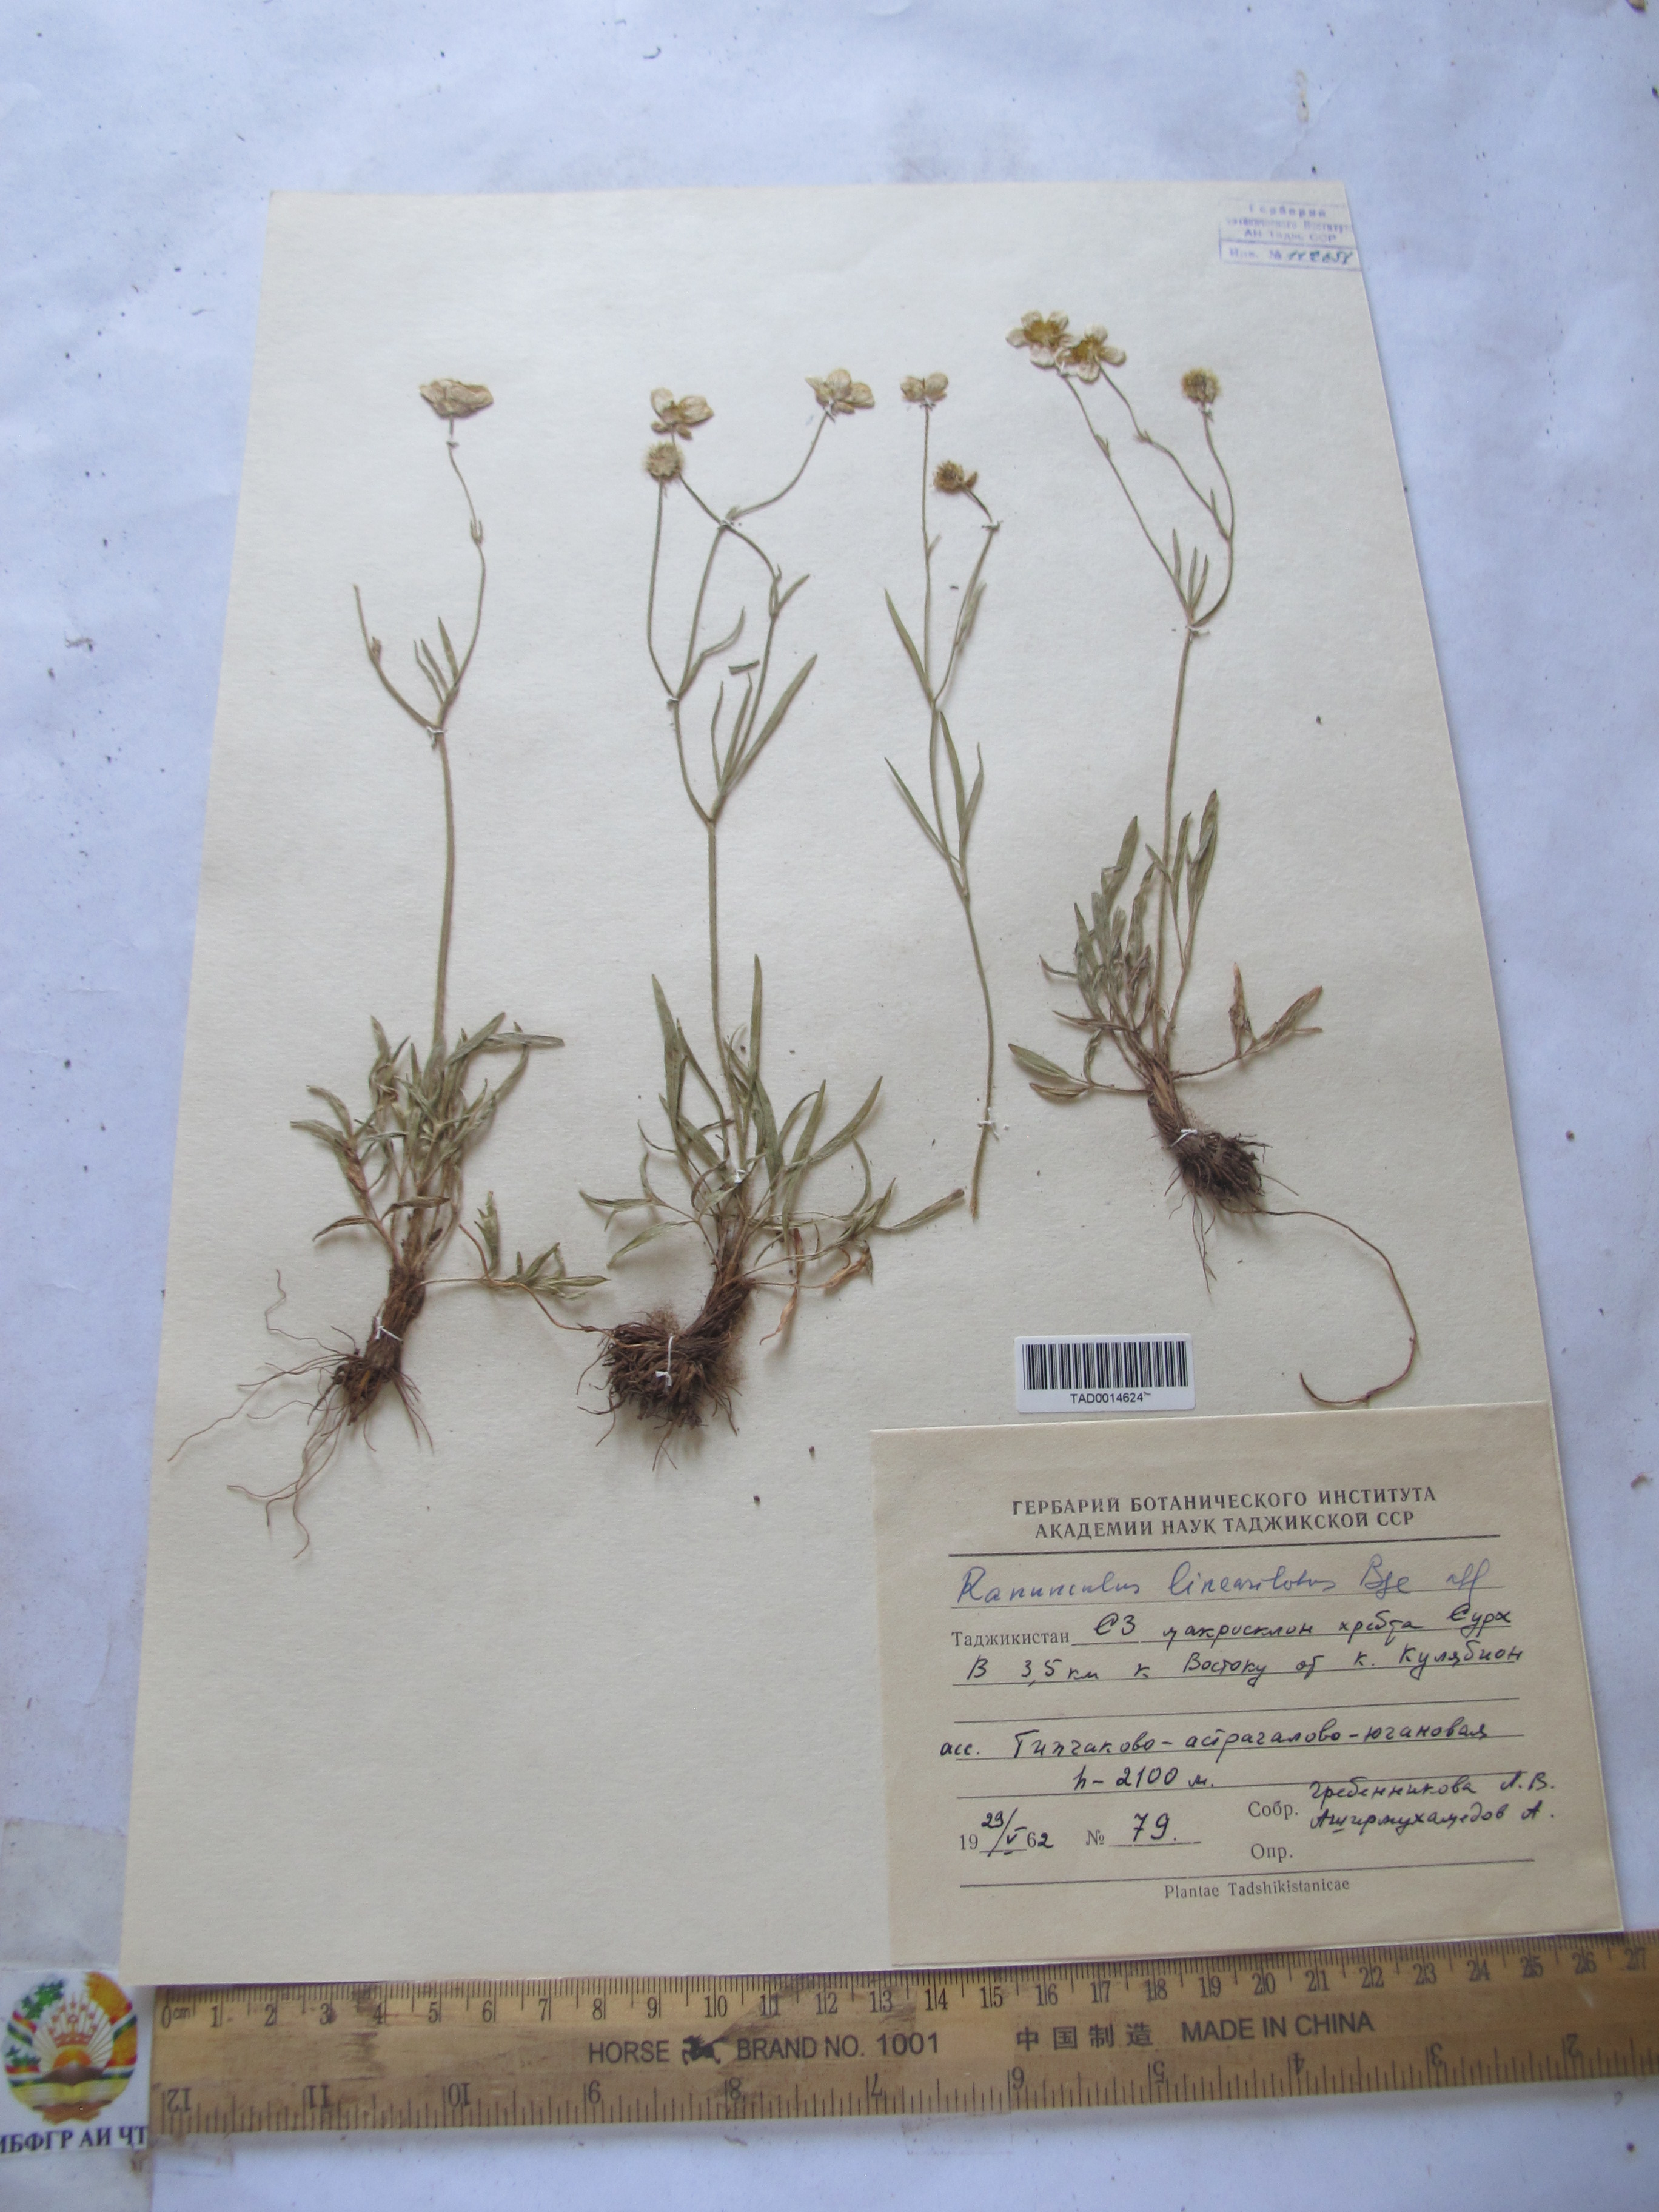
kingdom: Plantae
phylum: Tracheophyta
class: Magnoliopsida
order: Ranunculales
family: Ranunculaceae
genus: Ranunculus
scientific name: Ranunculus linearilobus
